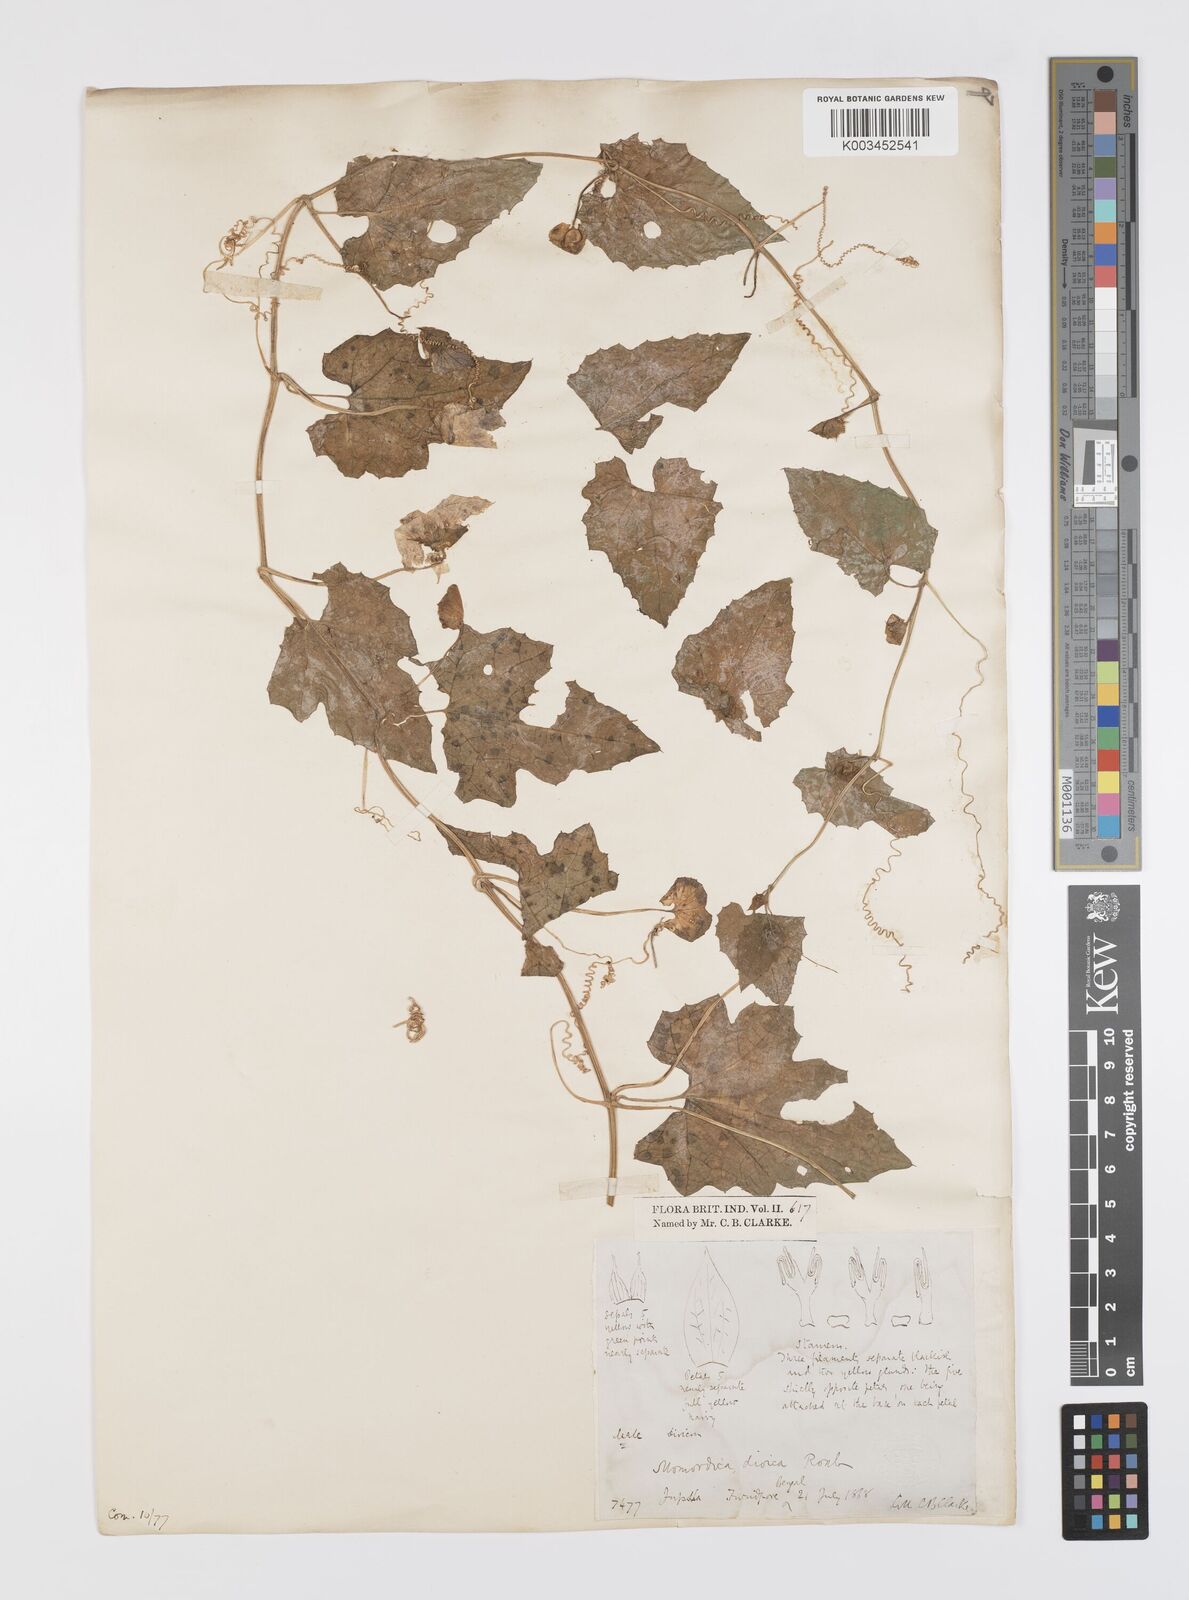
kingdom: Plantae
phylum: Tracheophyta
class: Magnoliopsida
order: Cucurbitales
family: Cucurbitaceae
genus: Momordica
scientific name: Momordica dioica
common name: Spine gourd
